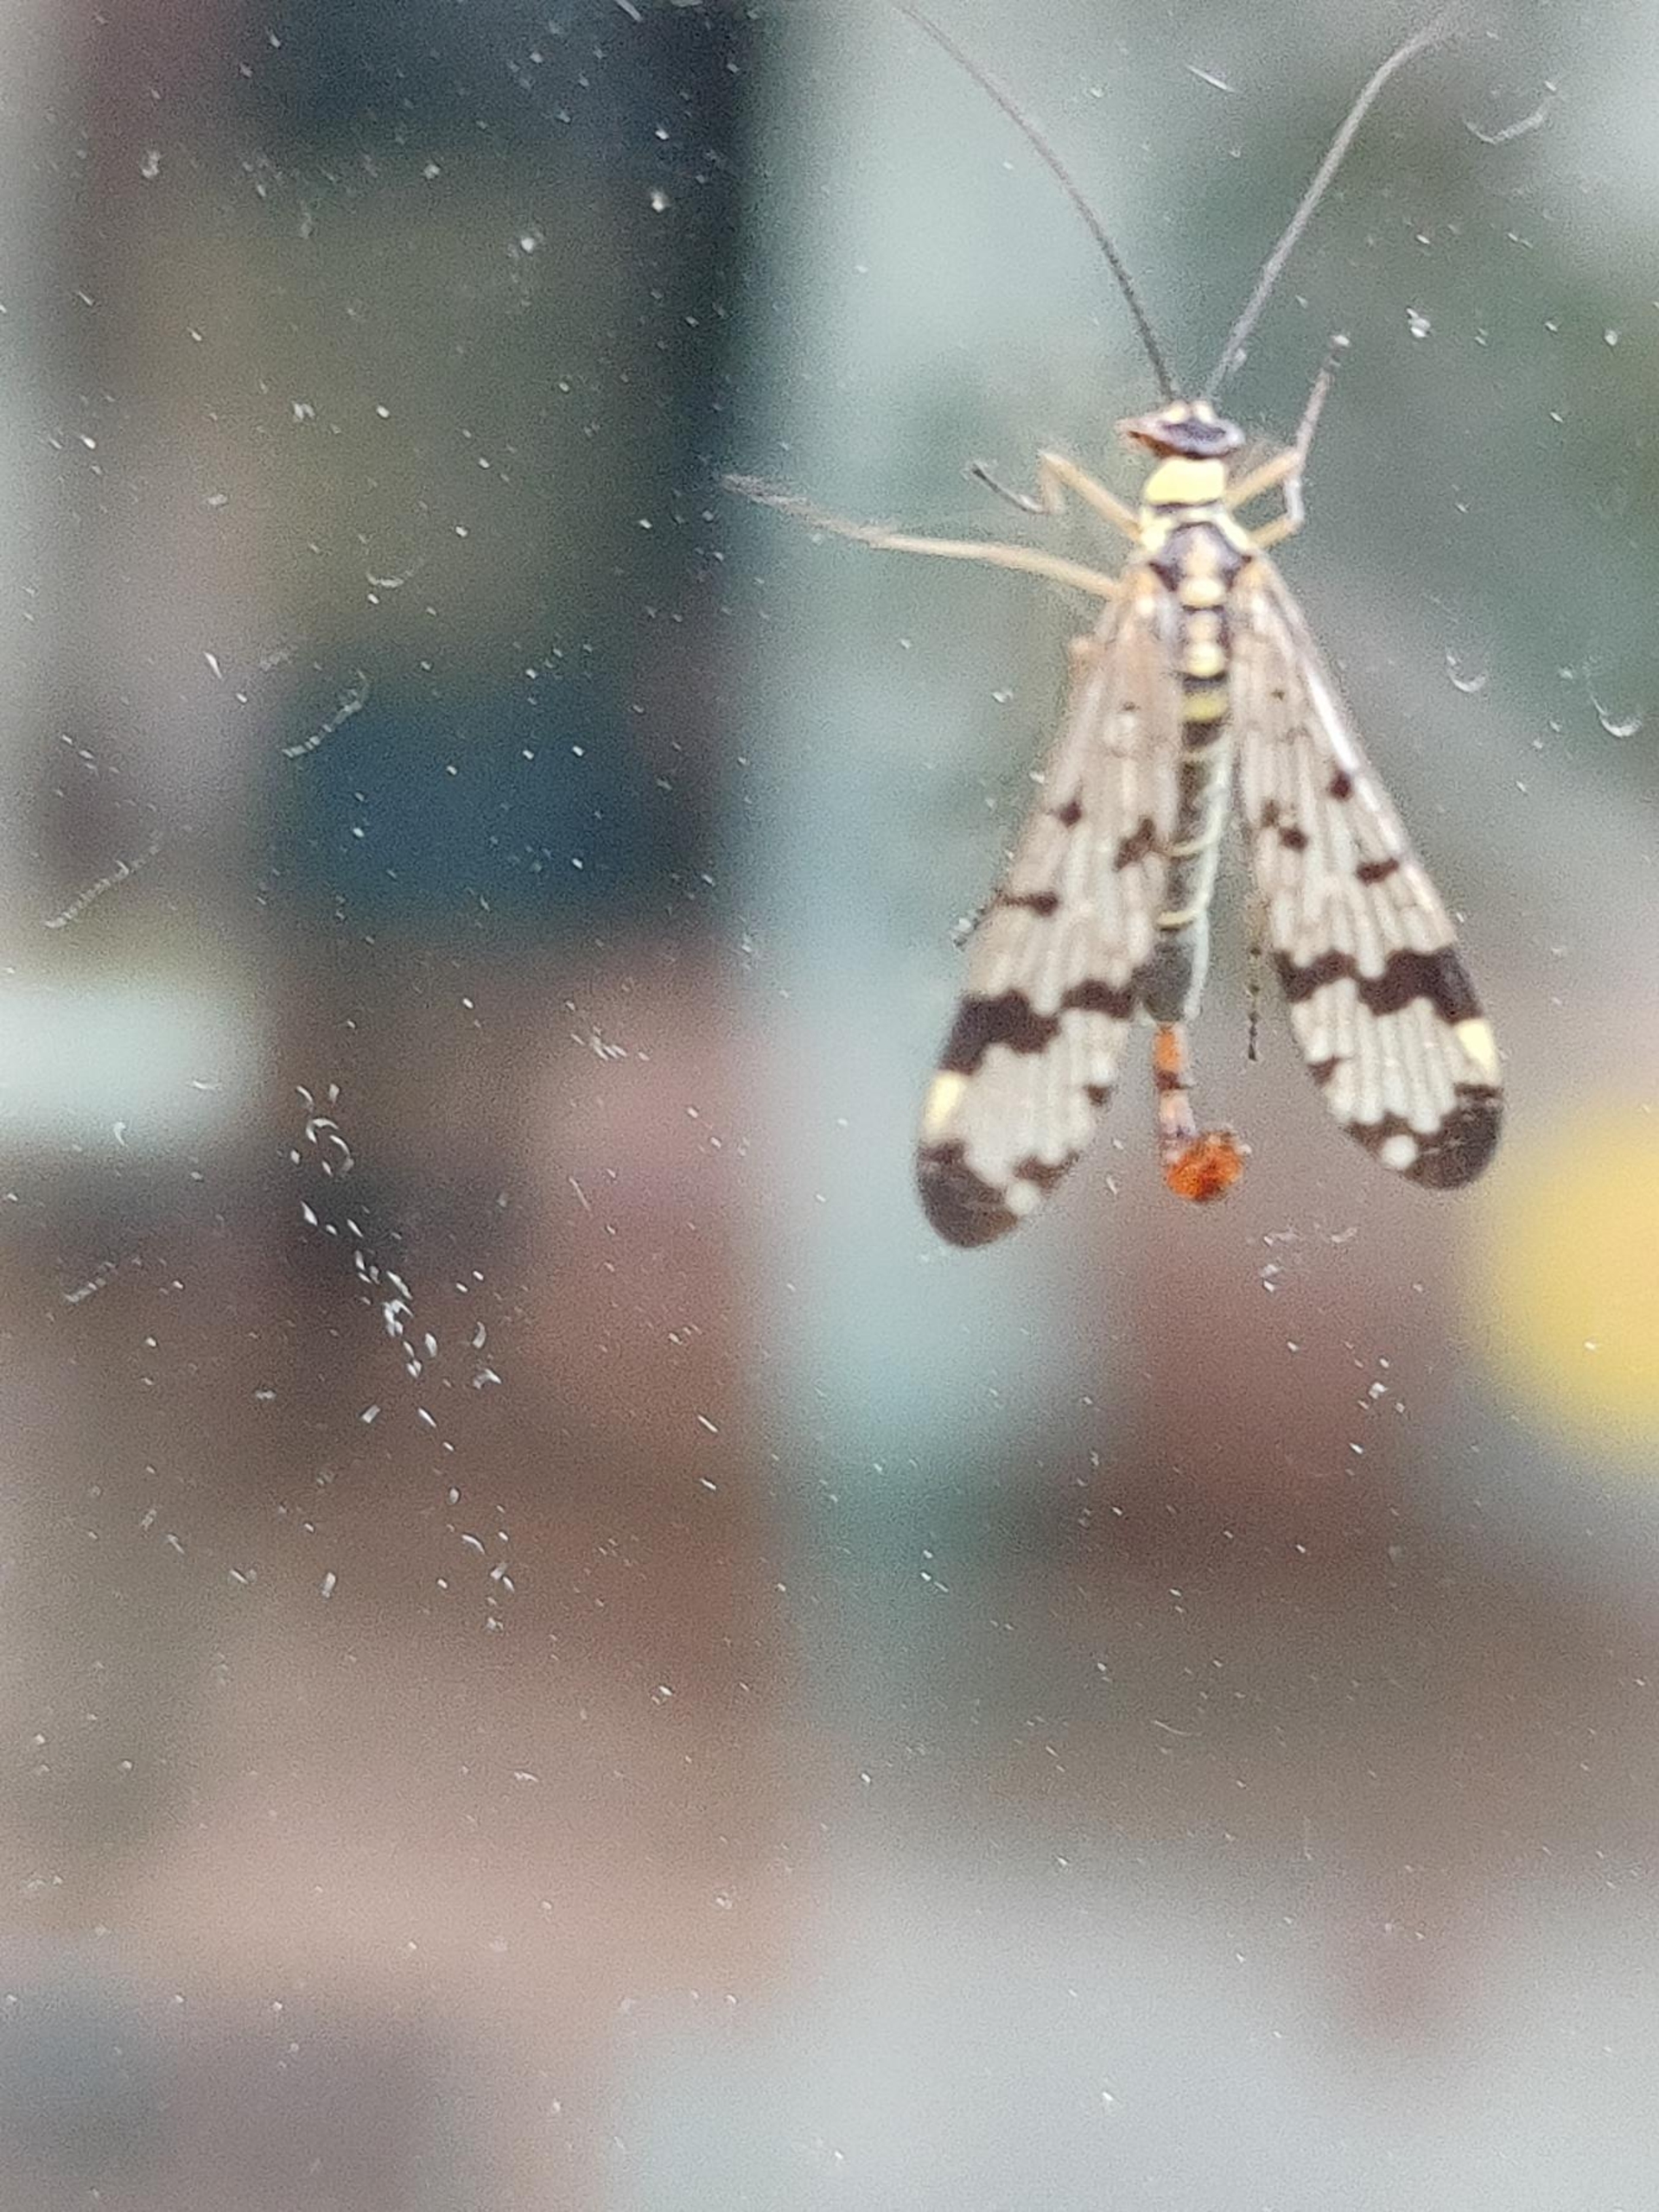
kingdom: Animalia
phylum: Arthropoda
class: Insecta
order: Mecoptera
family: Panorpidae
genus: Panorpa
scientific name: Panorpa communis
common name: Almindelig skorpionflue
